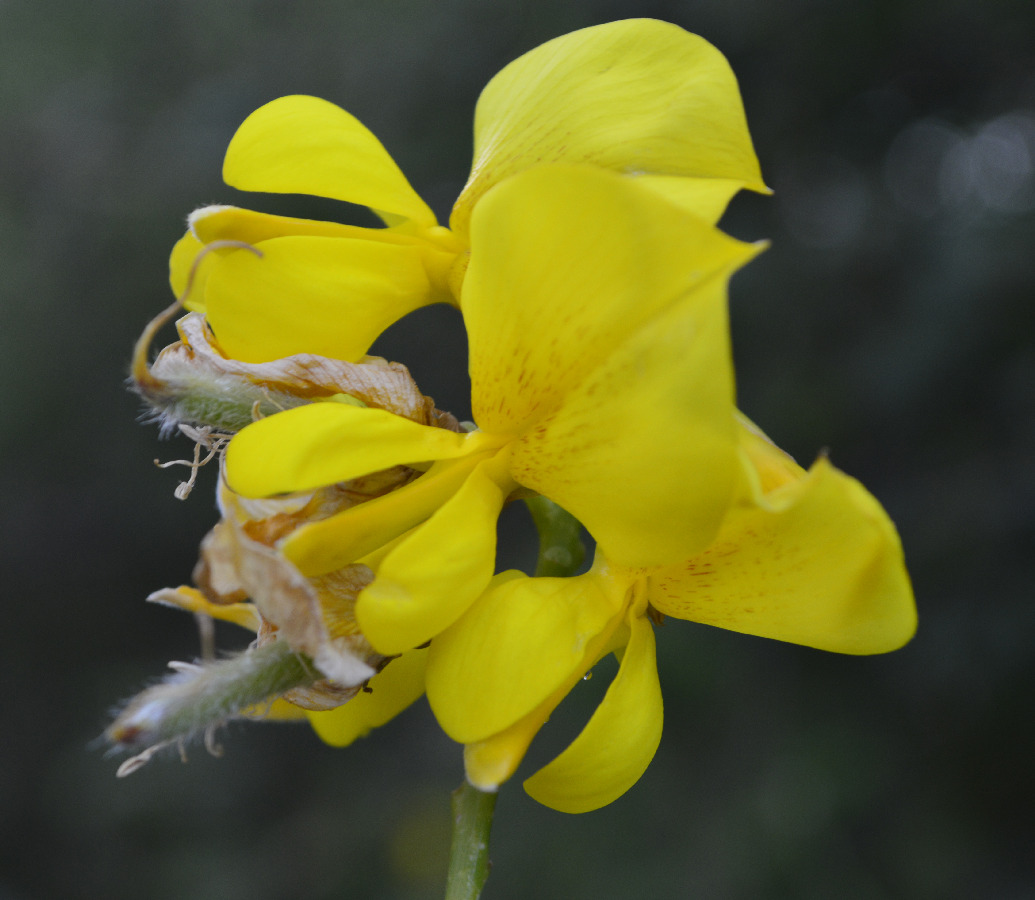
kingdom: Plantae
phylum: Tracheophyta
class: Magnoliopsida
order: Fabales
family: Fabaceae
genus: Coronilla
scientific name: Coronilla valentina
